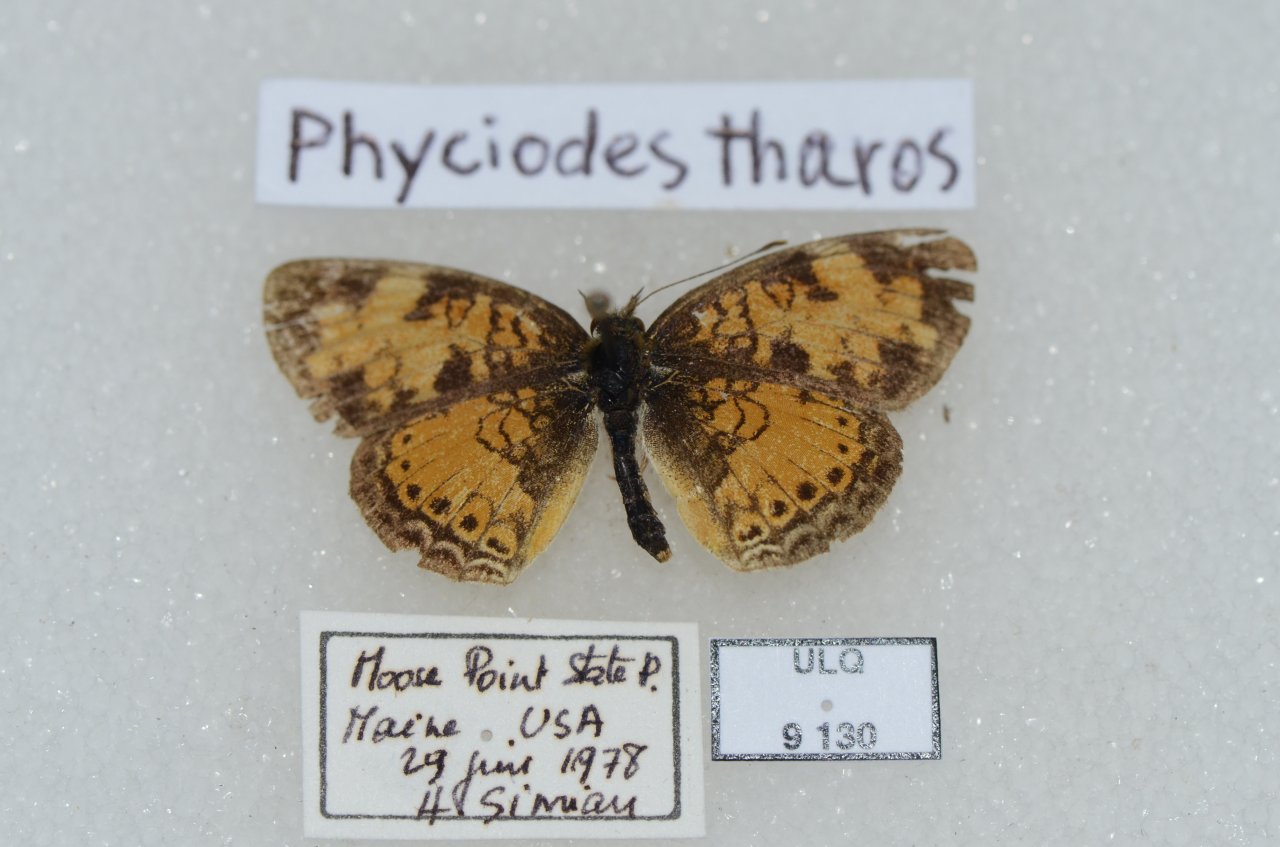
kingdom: Animalia
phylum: Arthropoda
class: Insecta
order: Lepidoptera
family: Nymphalidae
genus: Phyciodes
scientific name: Phyciodes tharos
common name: Pearl Crescent
